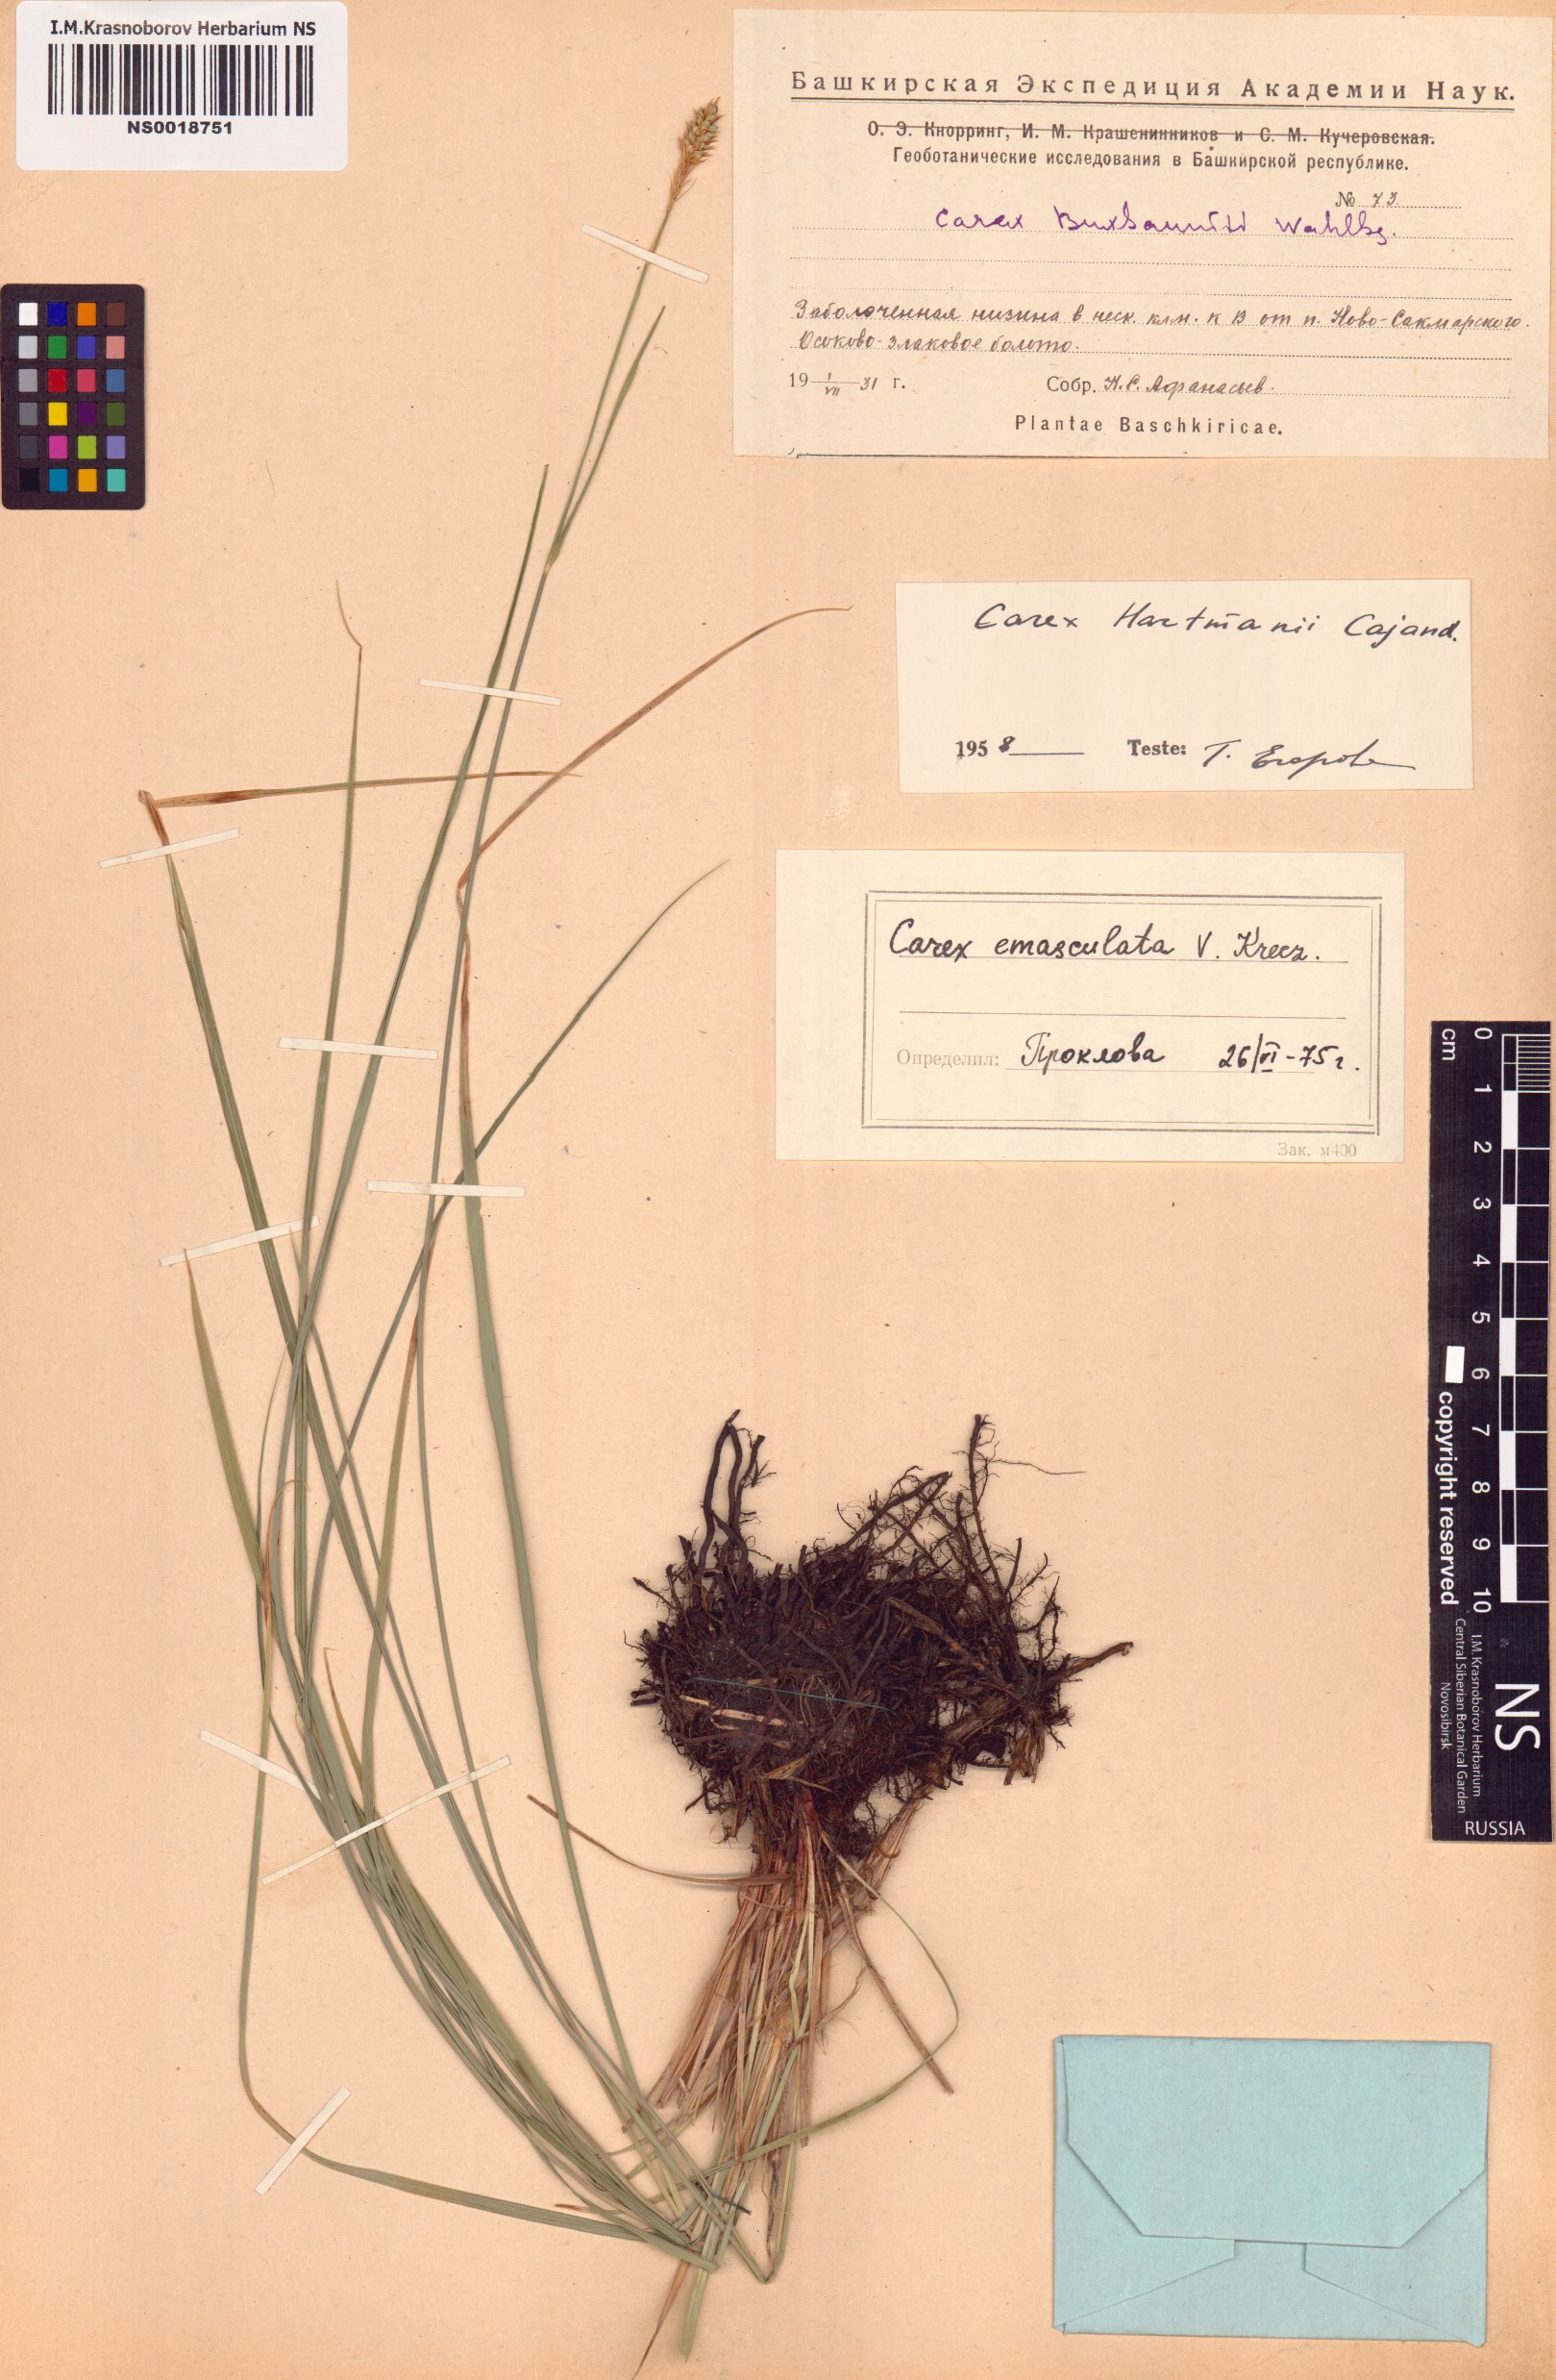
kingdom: Plantae
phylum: Tracheophyta
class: Liliopsida
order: Poales
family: Cyperaceae
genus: Carex
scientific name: Carex hartmaniorum
